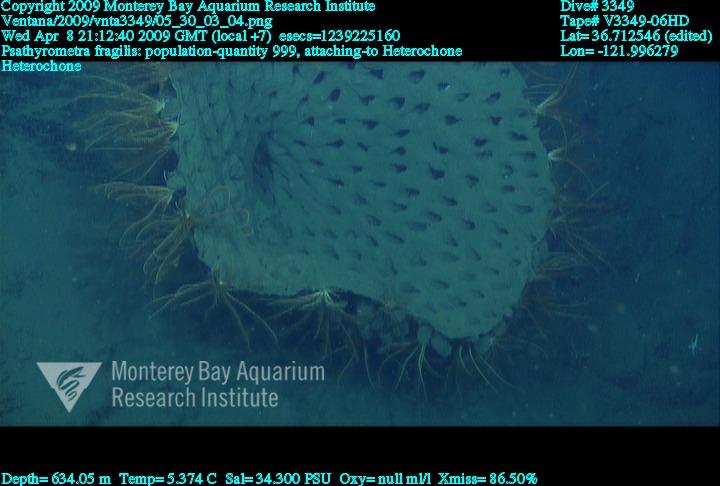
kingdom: Animalia
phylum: Porifera
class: Hexactinellida
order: Sceptrulophora
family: Aphrocallistidae
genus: Heterochone
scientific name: Heterochone
